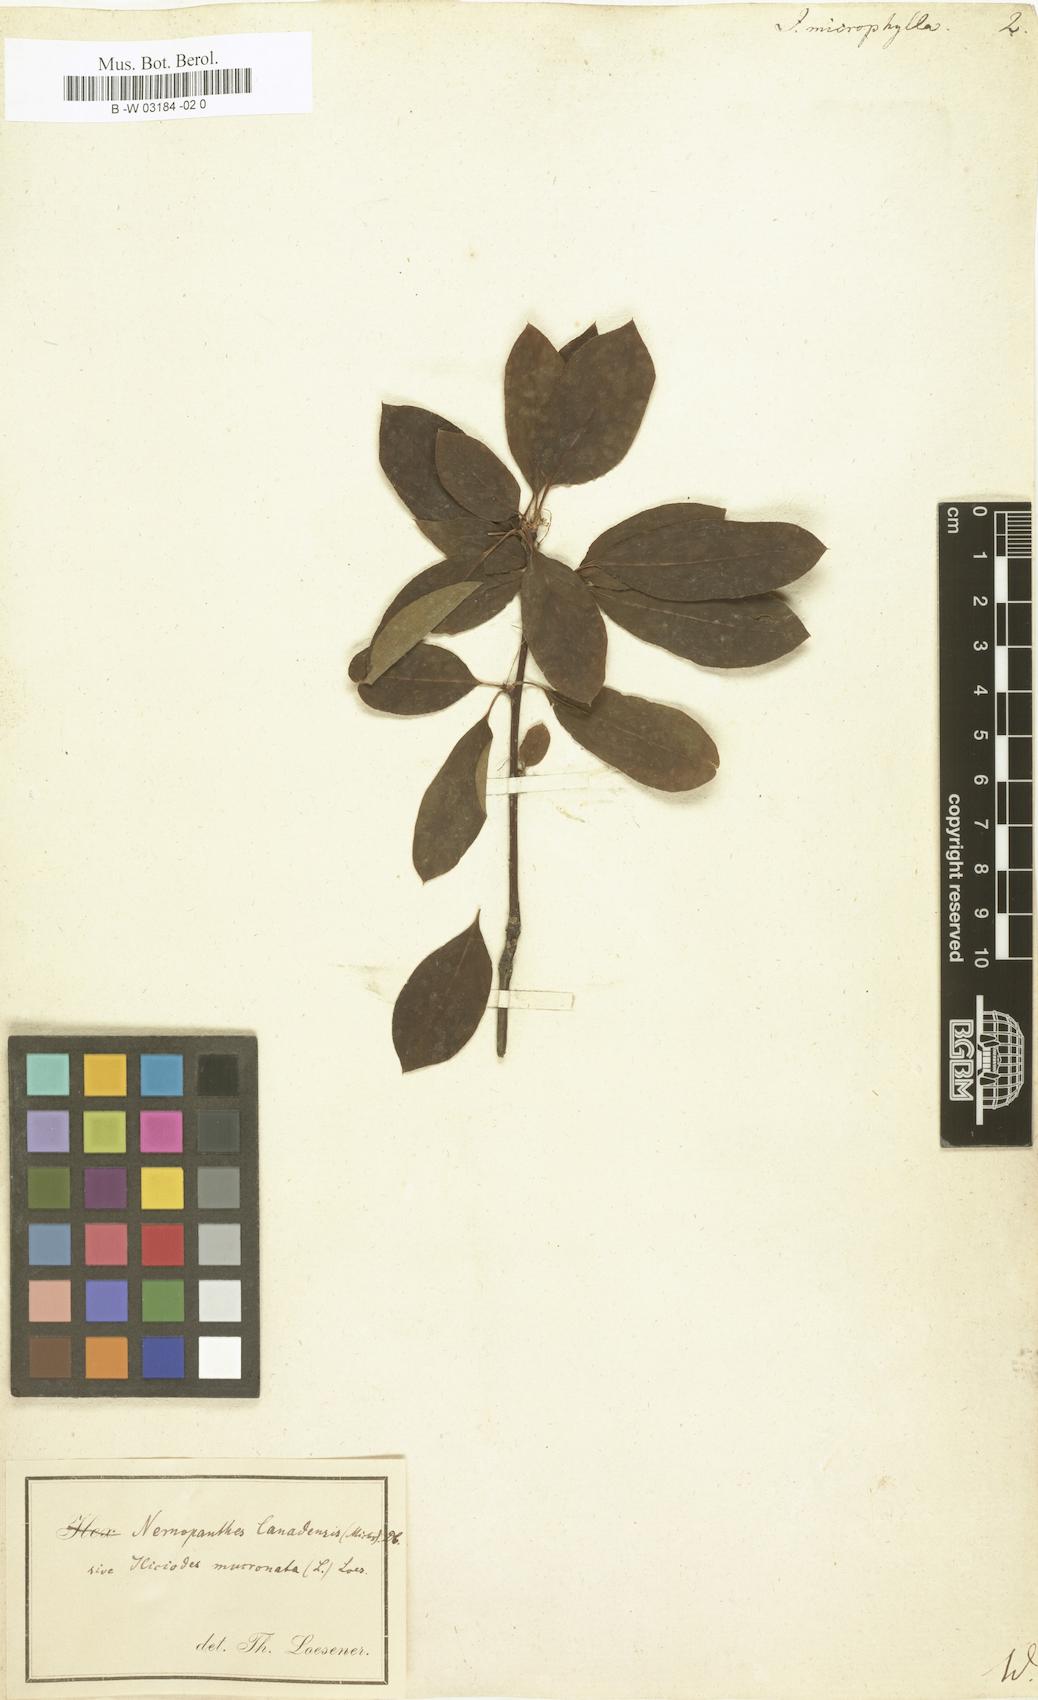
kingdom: Plantae
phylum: Tracheophyta
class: Magnoliopsida
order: Aquifoliales
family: Aquifoliaceae
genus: Ilex
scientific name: Ilex microphylla
